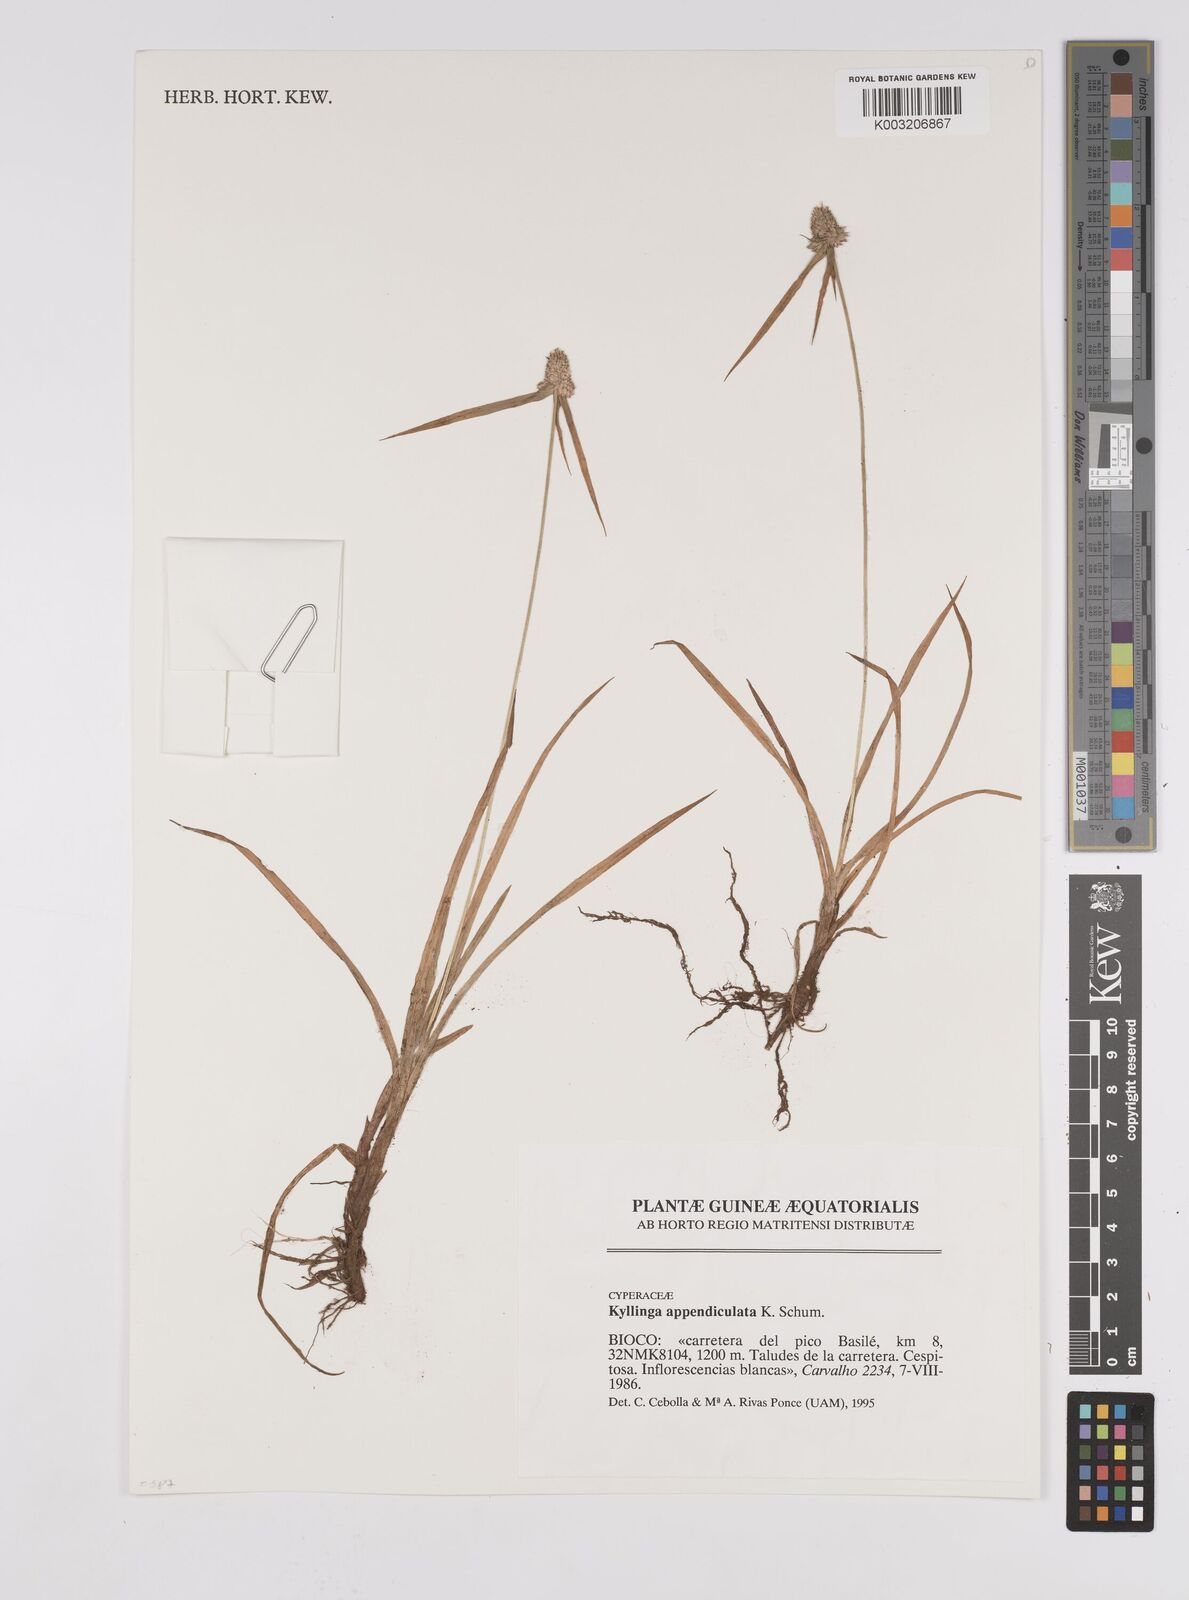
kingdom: Plantae
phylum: Tracheophyta
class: Liliopsida
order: Poales
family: Cyperaceae
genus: Cyperus
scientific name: Cyperus odoratus
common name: Fragrant flatsedge
